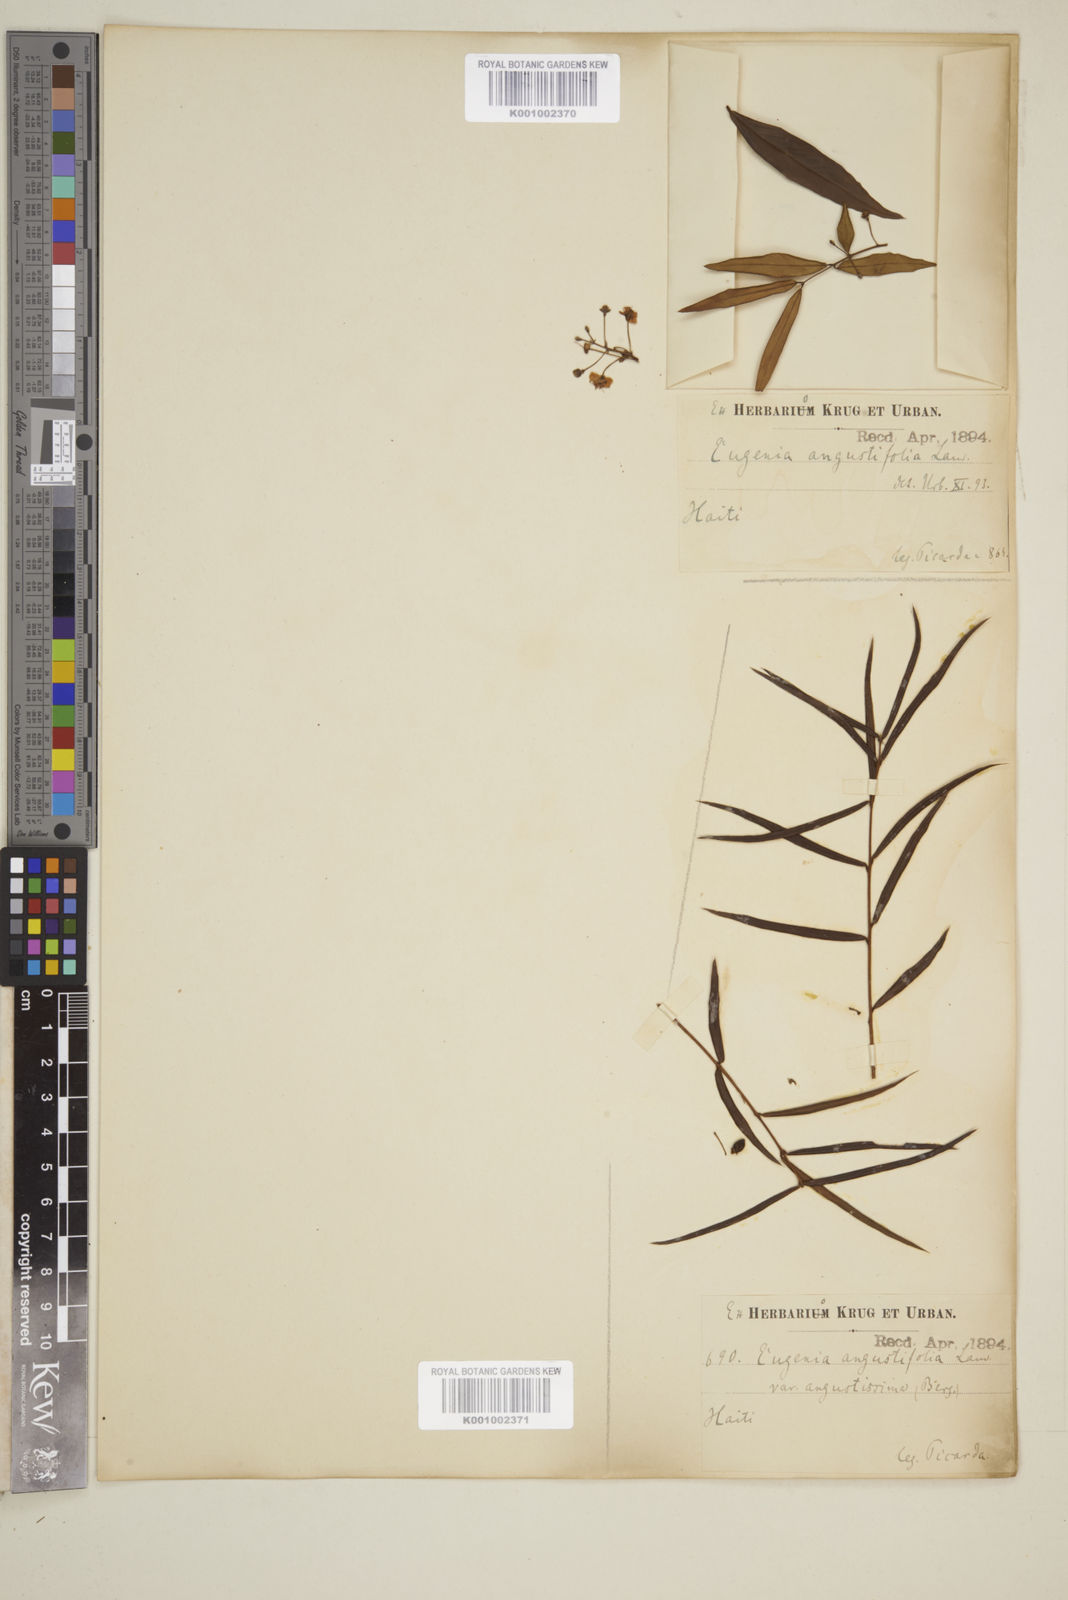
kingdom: Plantae
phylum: Tracheophyta
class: Magnoliopsida
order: Myrtales
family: Myrtaceae
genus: Eugenia
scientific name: Eugenia pomifera
